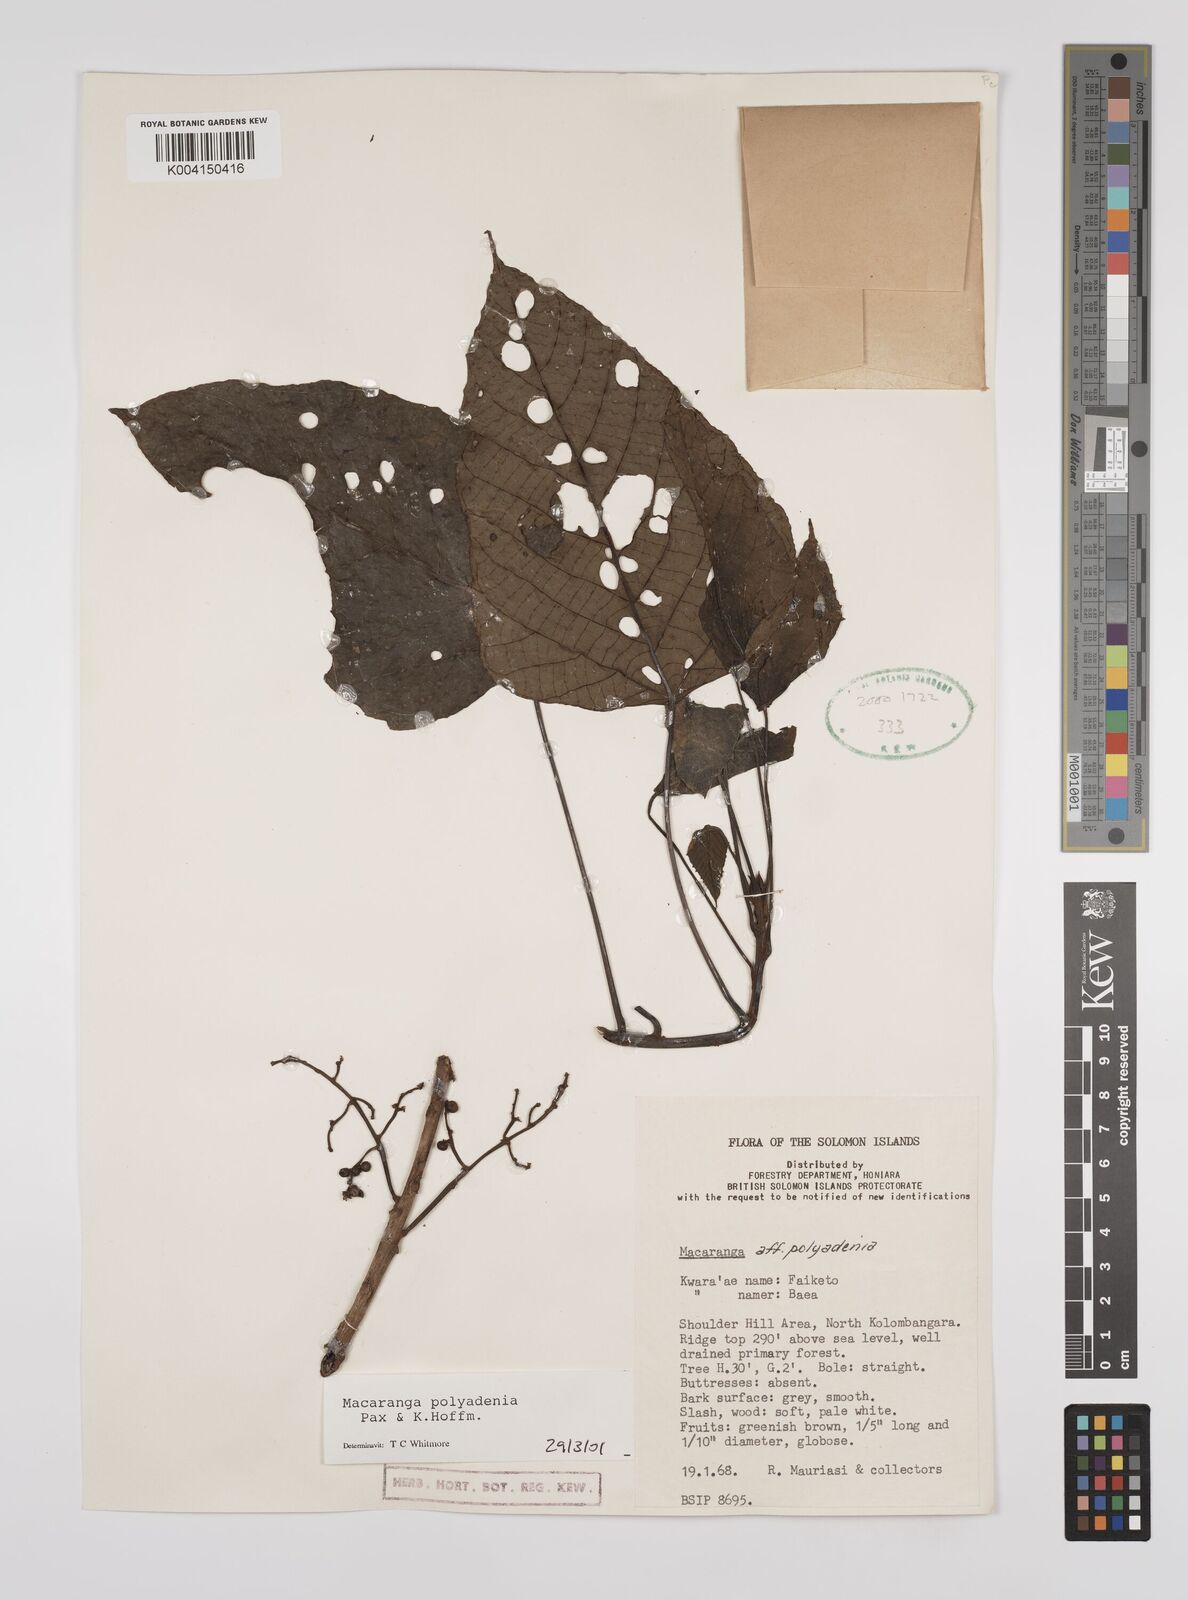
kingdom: Plantae
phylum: Tracheophyta
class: Magnoliopsida
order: Malpighiales
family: Euphorbiaceae
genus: Macaranga
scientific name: Macaranga polyadenia
